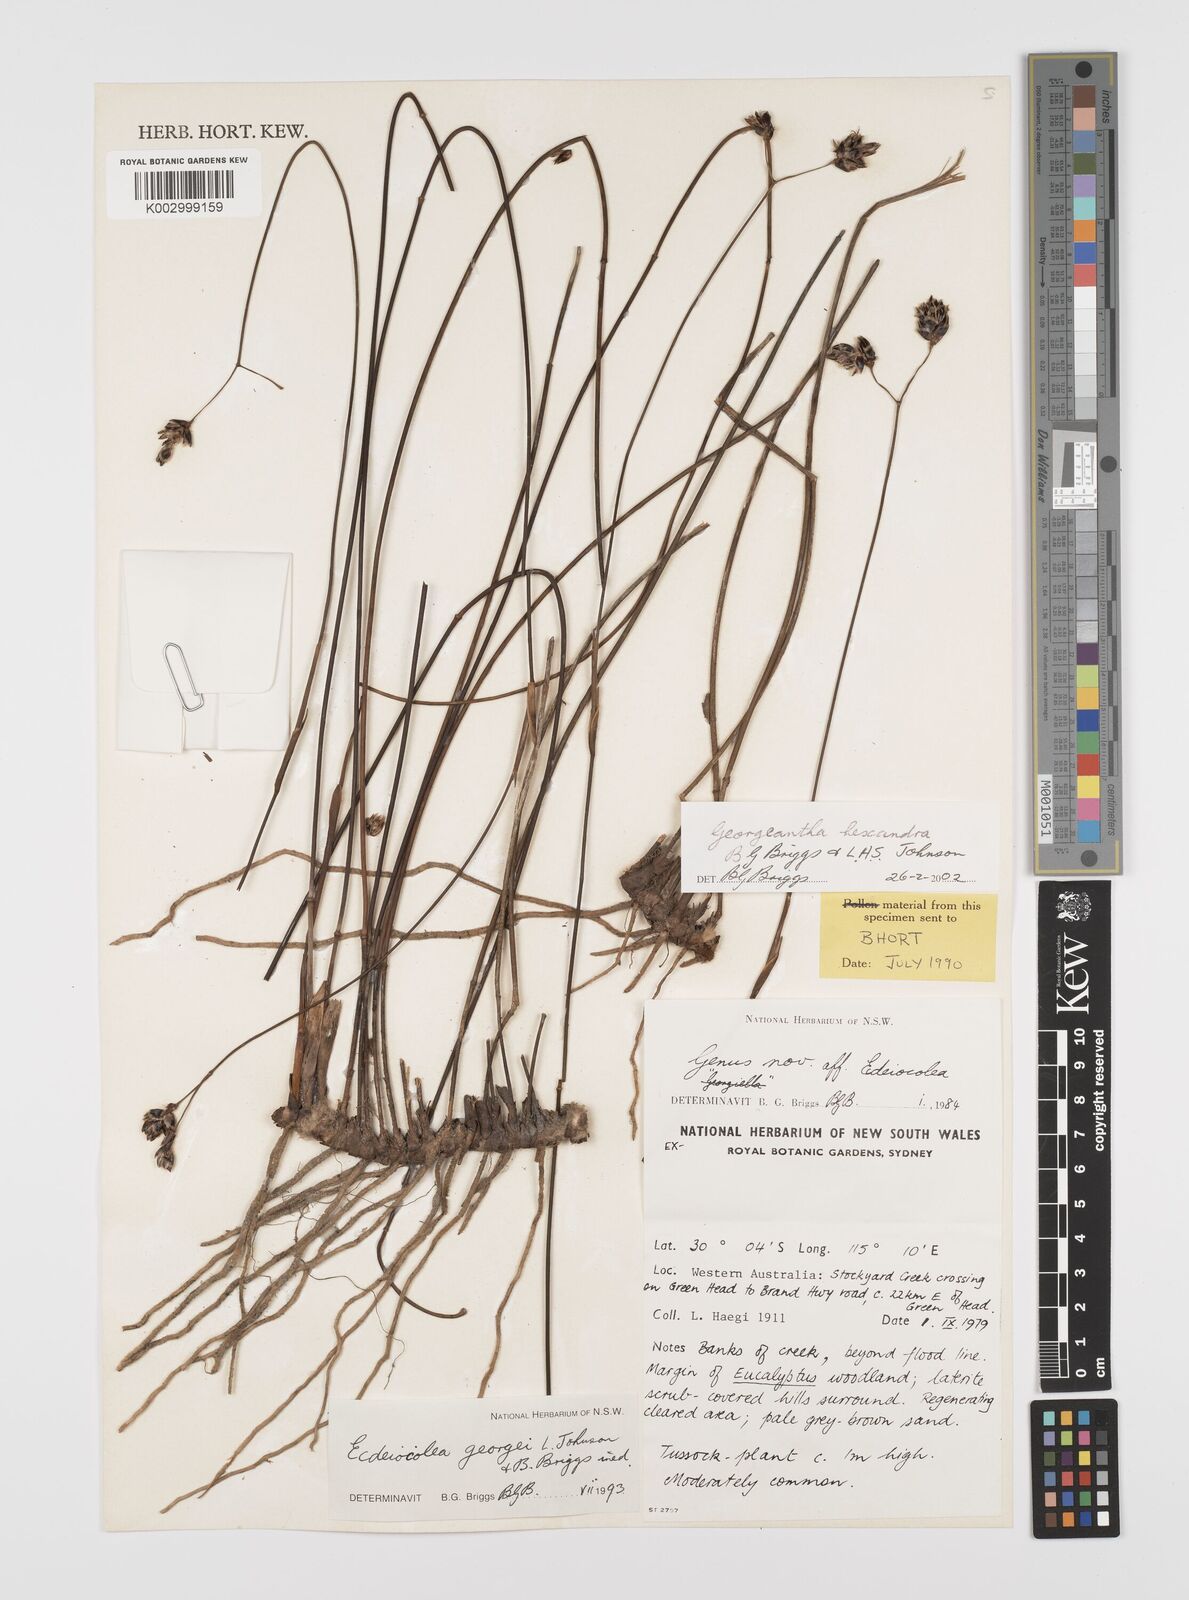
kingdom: Plantae
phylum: Tracheophyta
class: Liliopsida
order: Poales
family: Ecdeiocoleaceae
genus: Georgeantha
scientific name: Georgeantha hexandra
